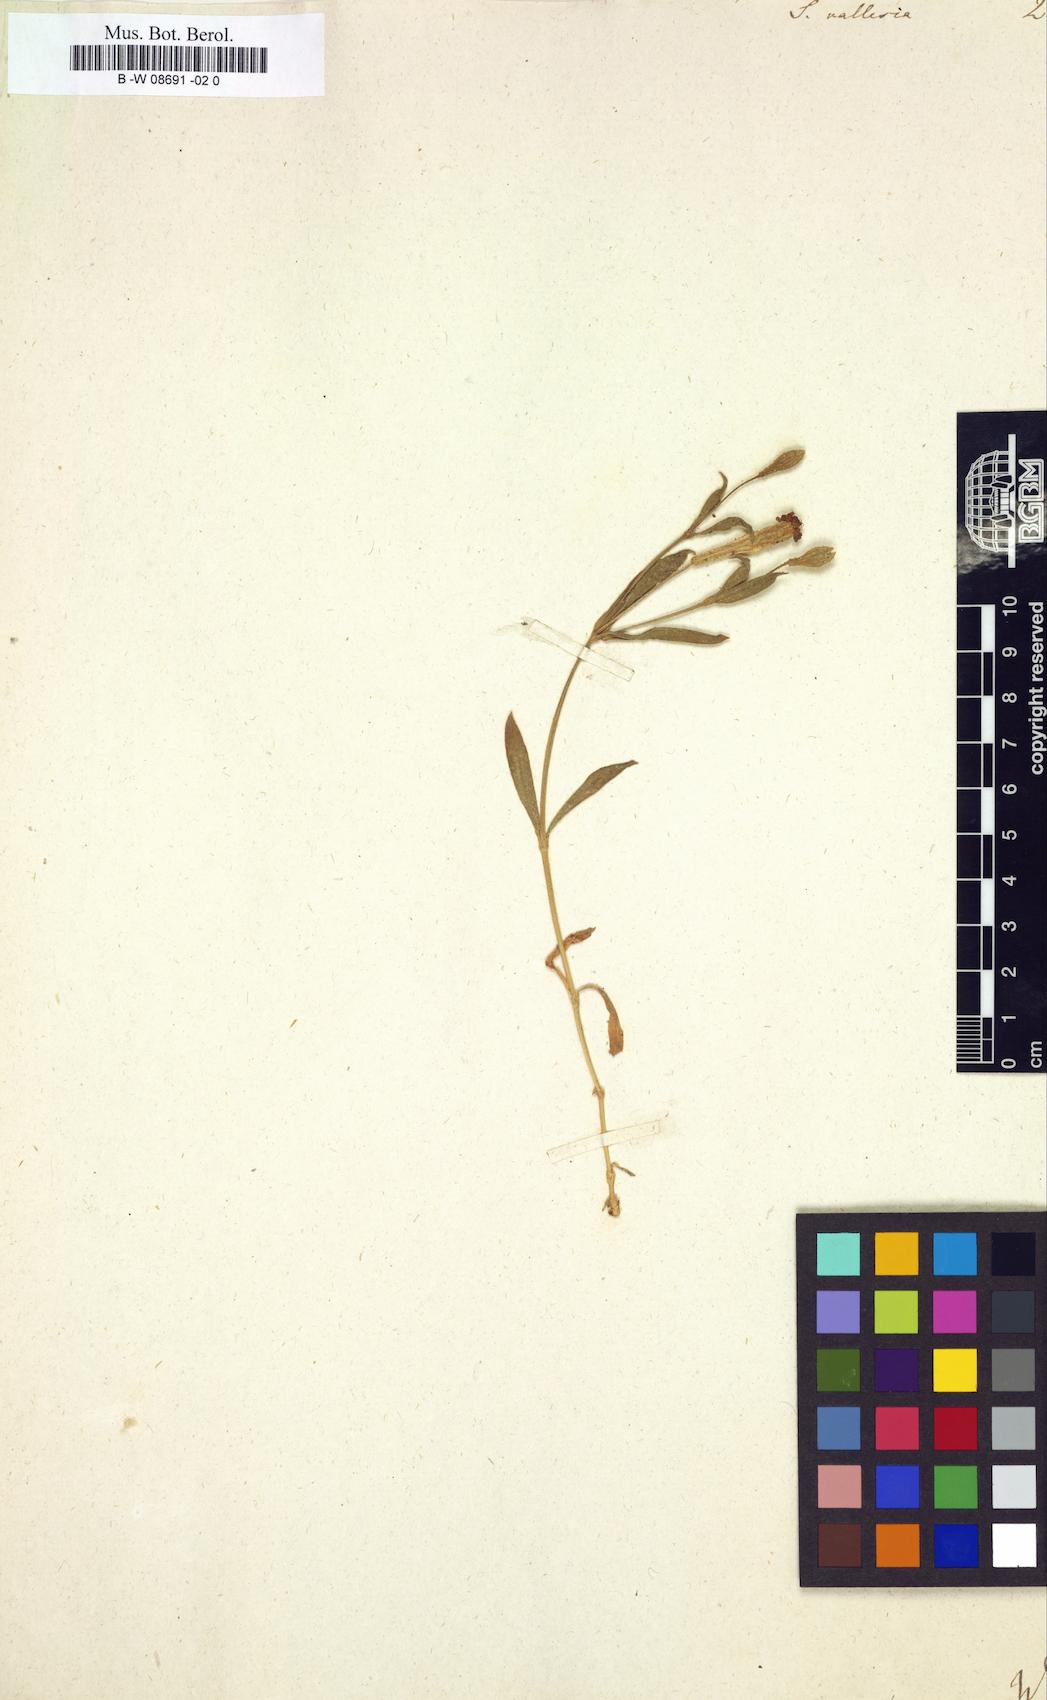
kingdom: Plantae
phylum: Tracheophyta
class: Magnoliopsida
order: Caryophyllales
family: Caryophyllaceae
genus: Silene
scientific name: Silene vallesia
